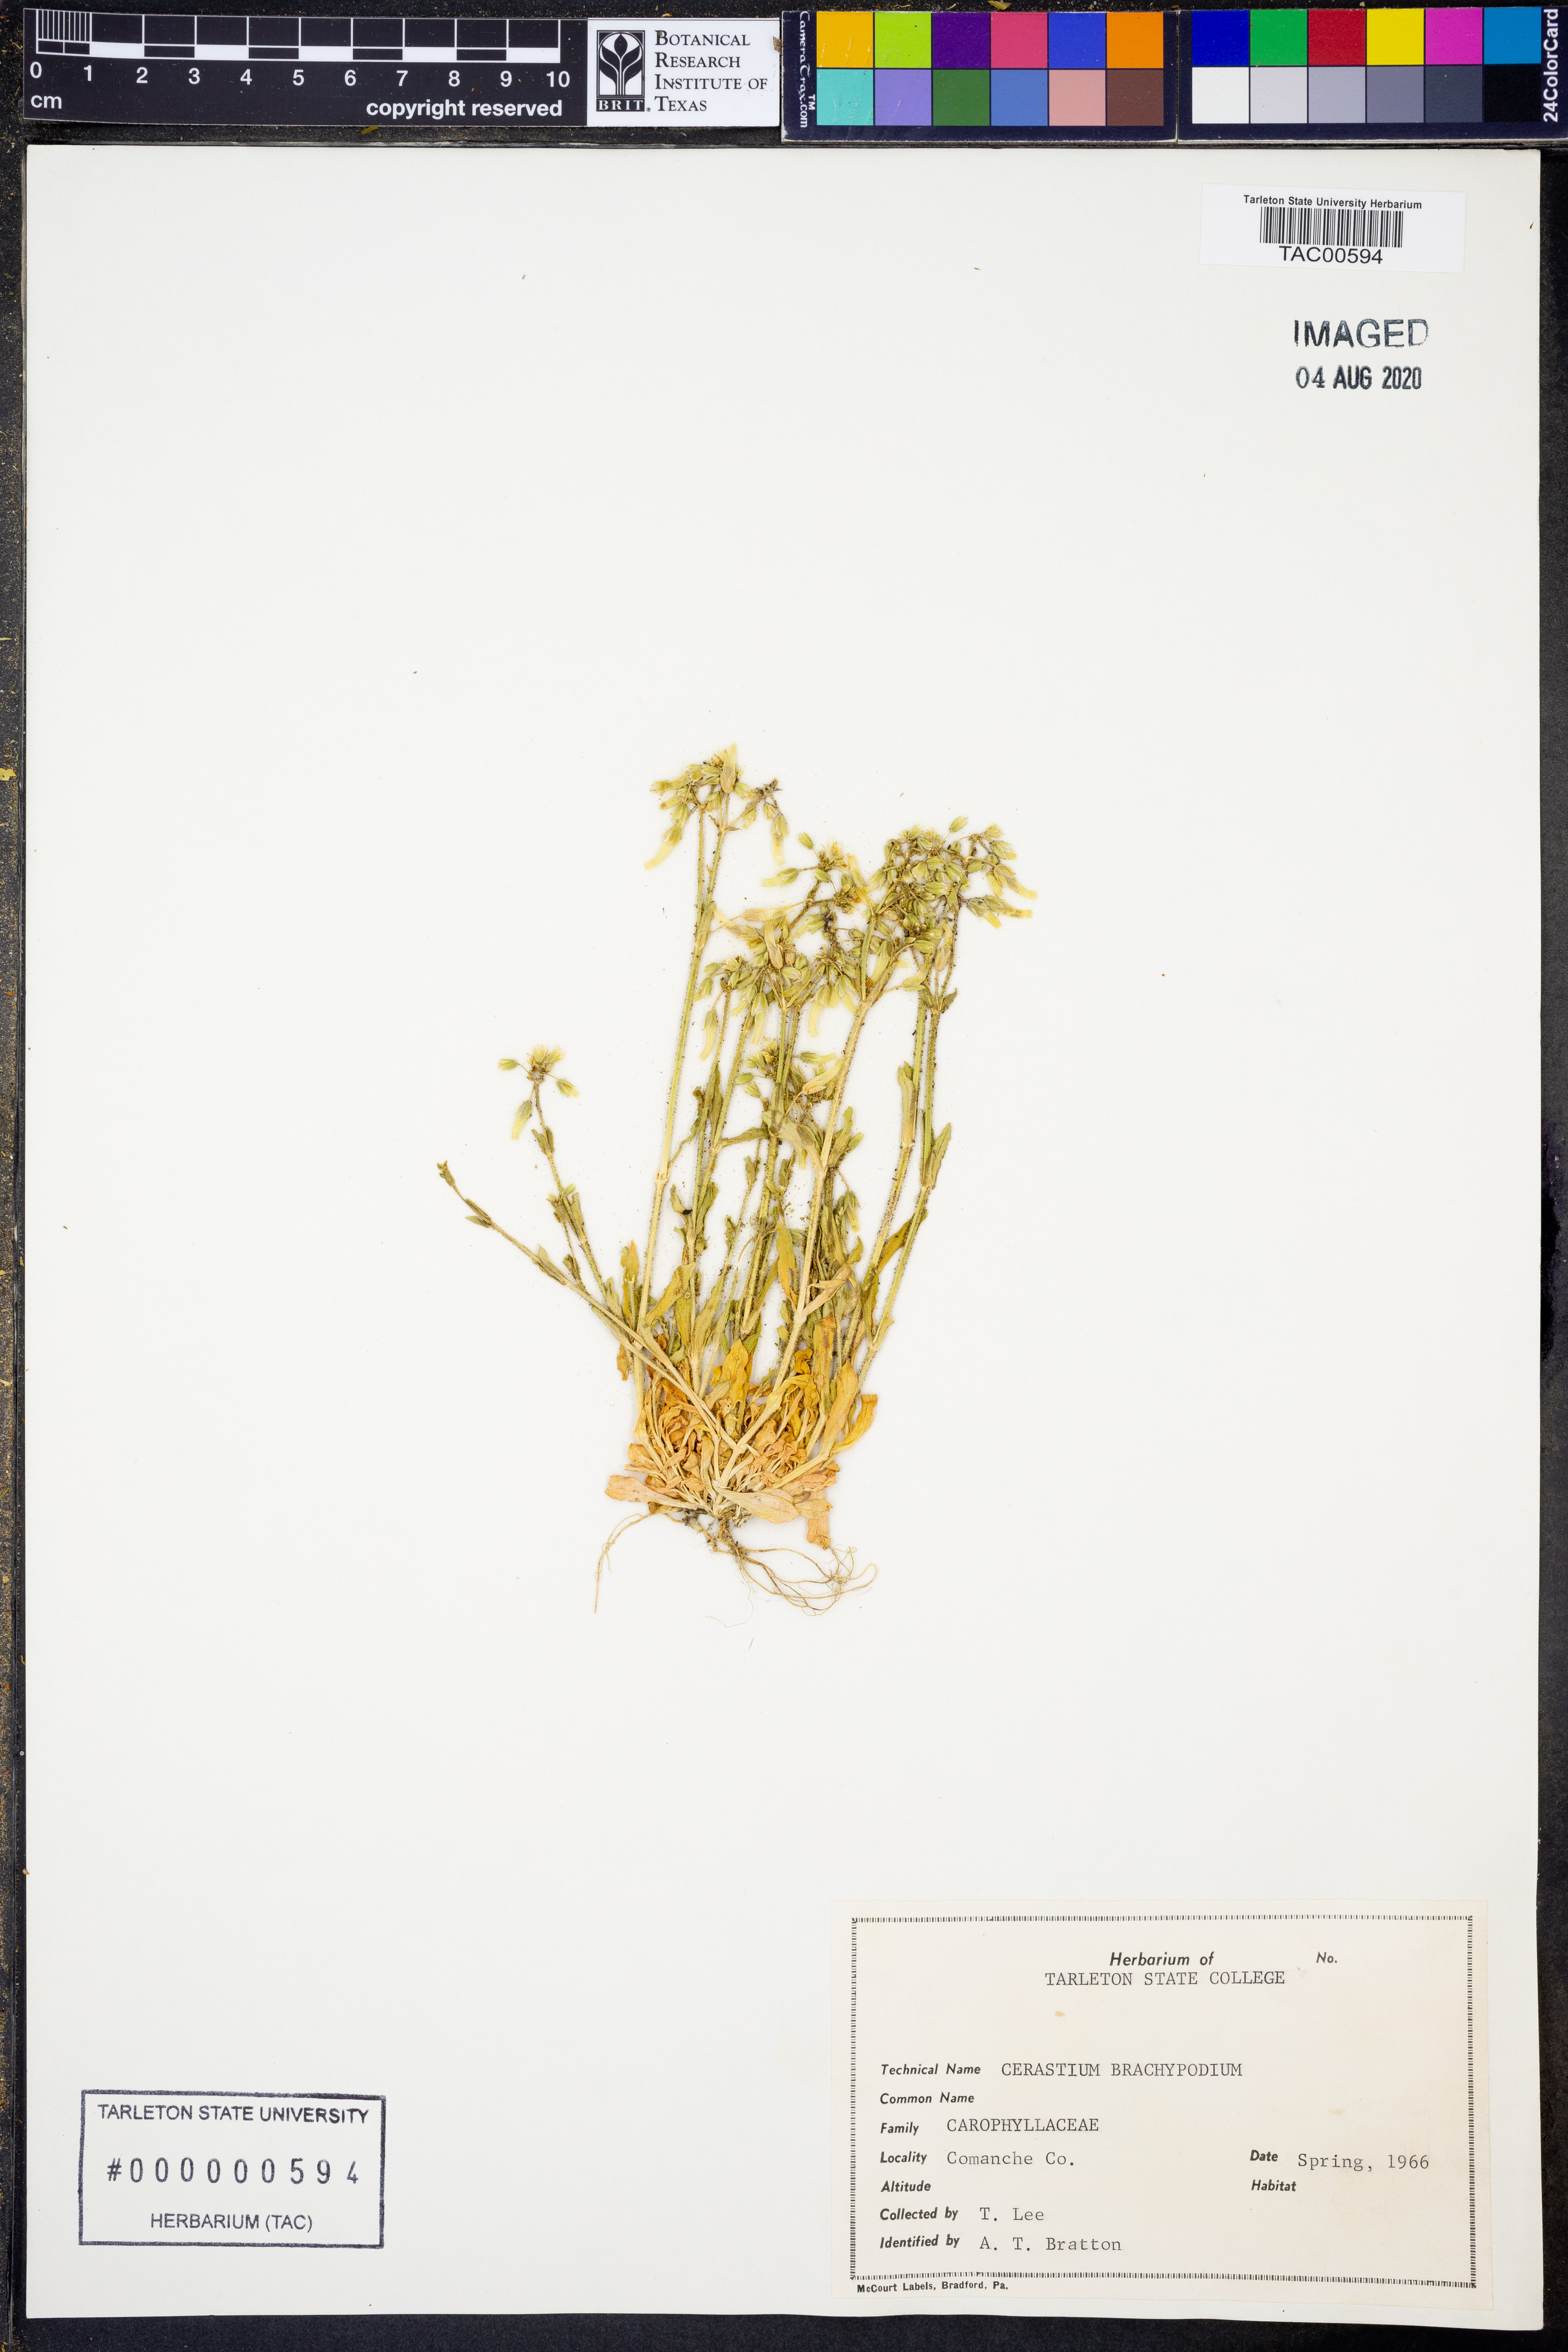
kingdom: Plantae
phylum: Tracheophyta
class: Magnoliopsida
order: Caryophyllales
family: Caryophyllaceae
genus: Cerastium
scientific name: Cerastium brachypodum
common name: Short-pedicelled nodding chickweed
